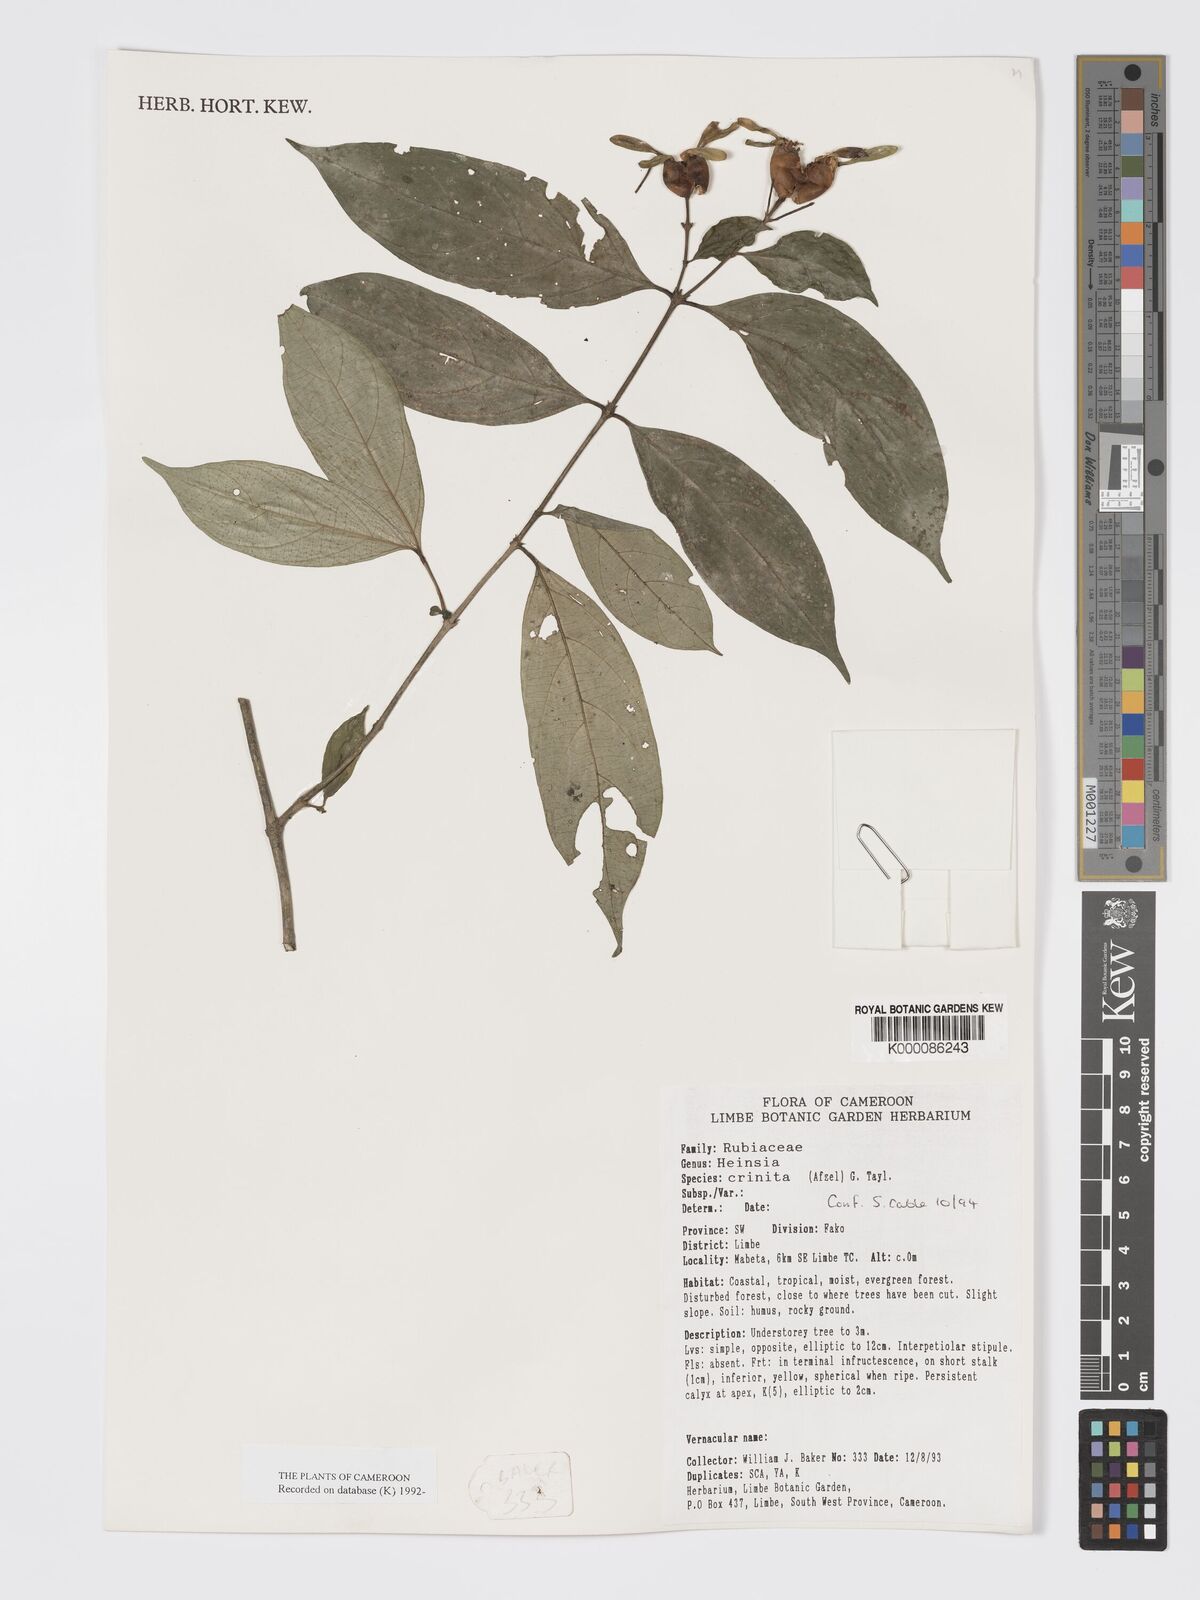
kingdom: Plantae
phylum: Tracheophyta
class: Magnoliopsida
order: Gentianales
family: Rubiaceae
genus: Heinsia
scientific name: Heinsia crinita
